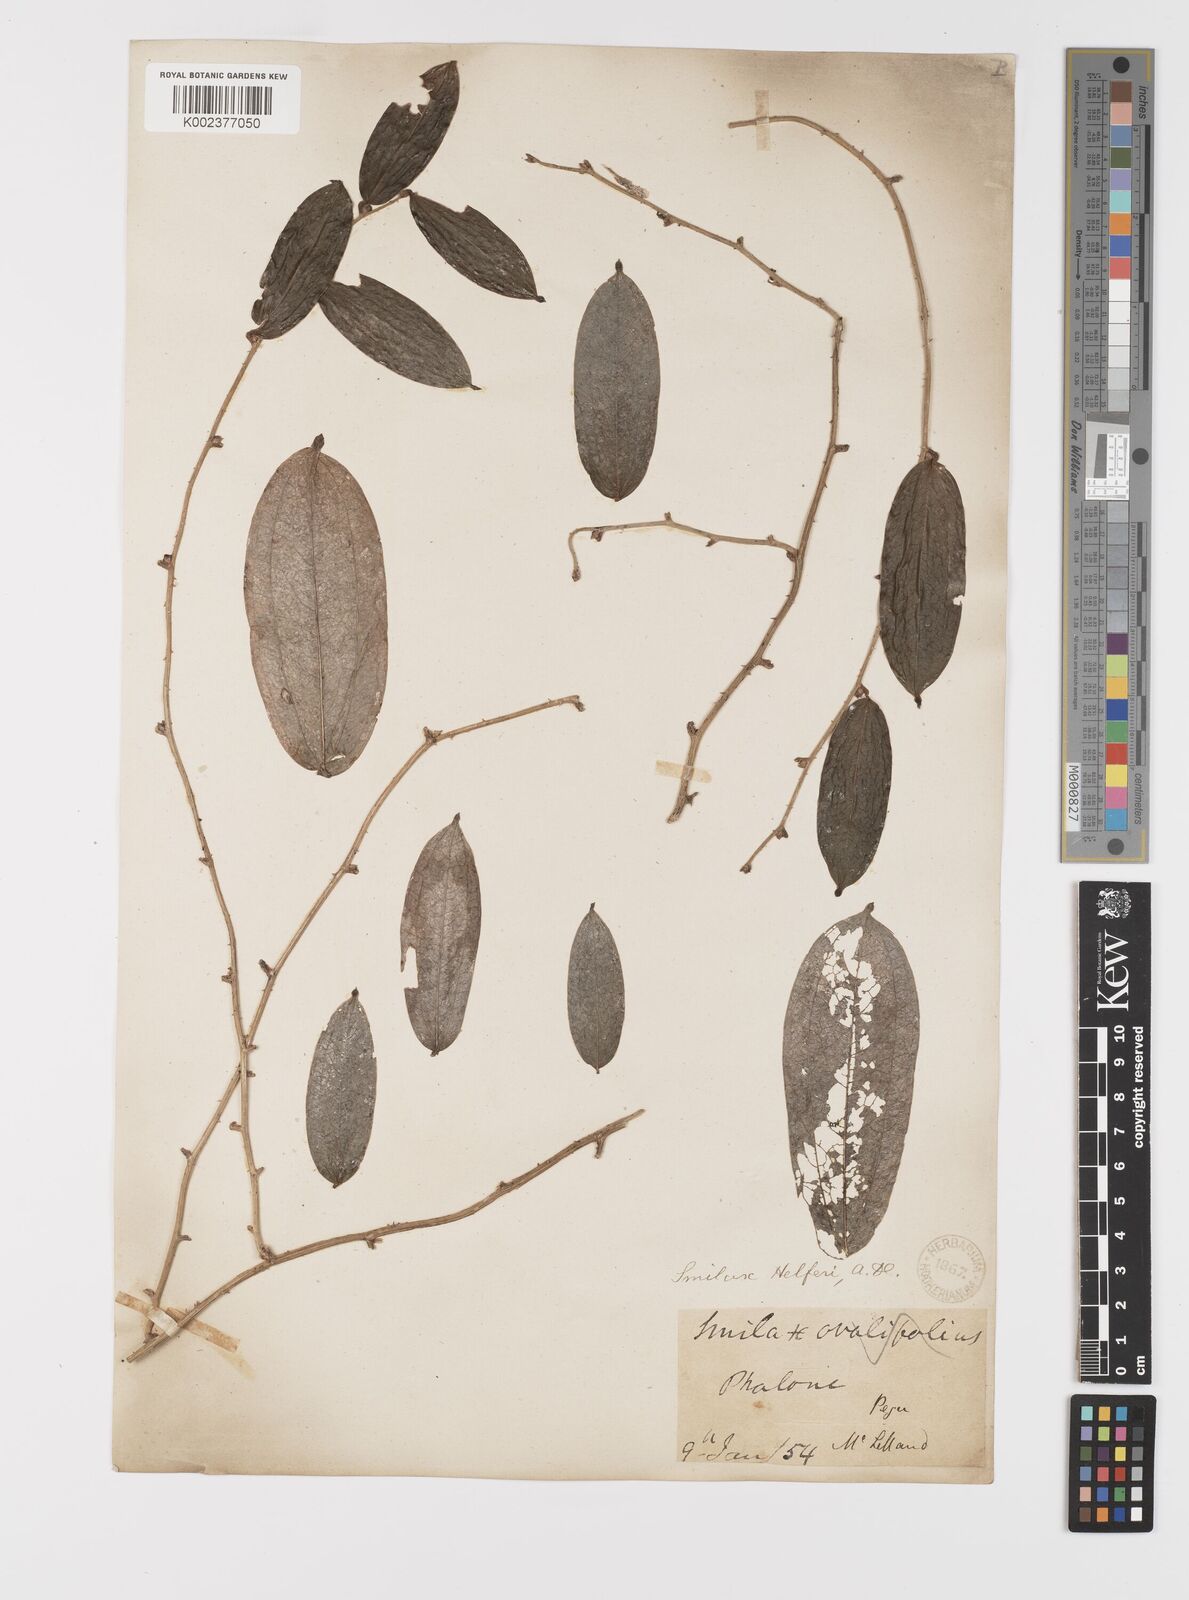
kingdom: Plantae
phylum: Tracheophyta
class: Liliopsida
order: Liliales
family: Smilacaceae
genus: Smilax
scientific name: Smilax luzonensis
